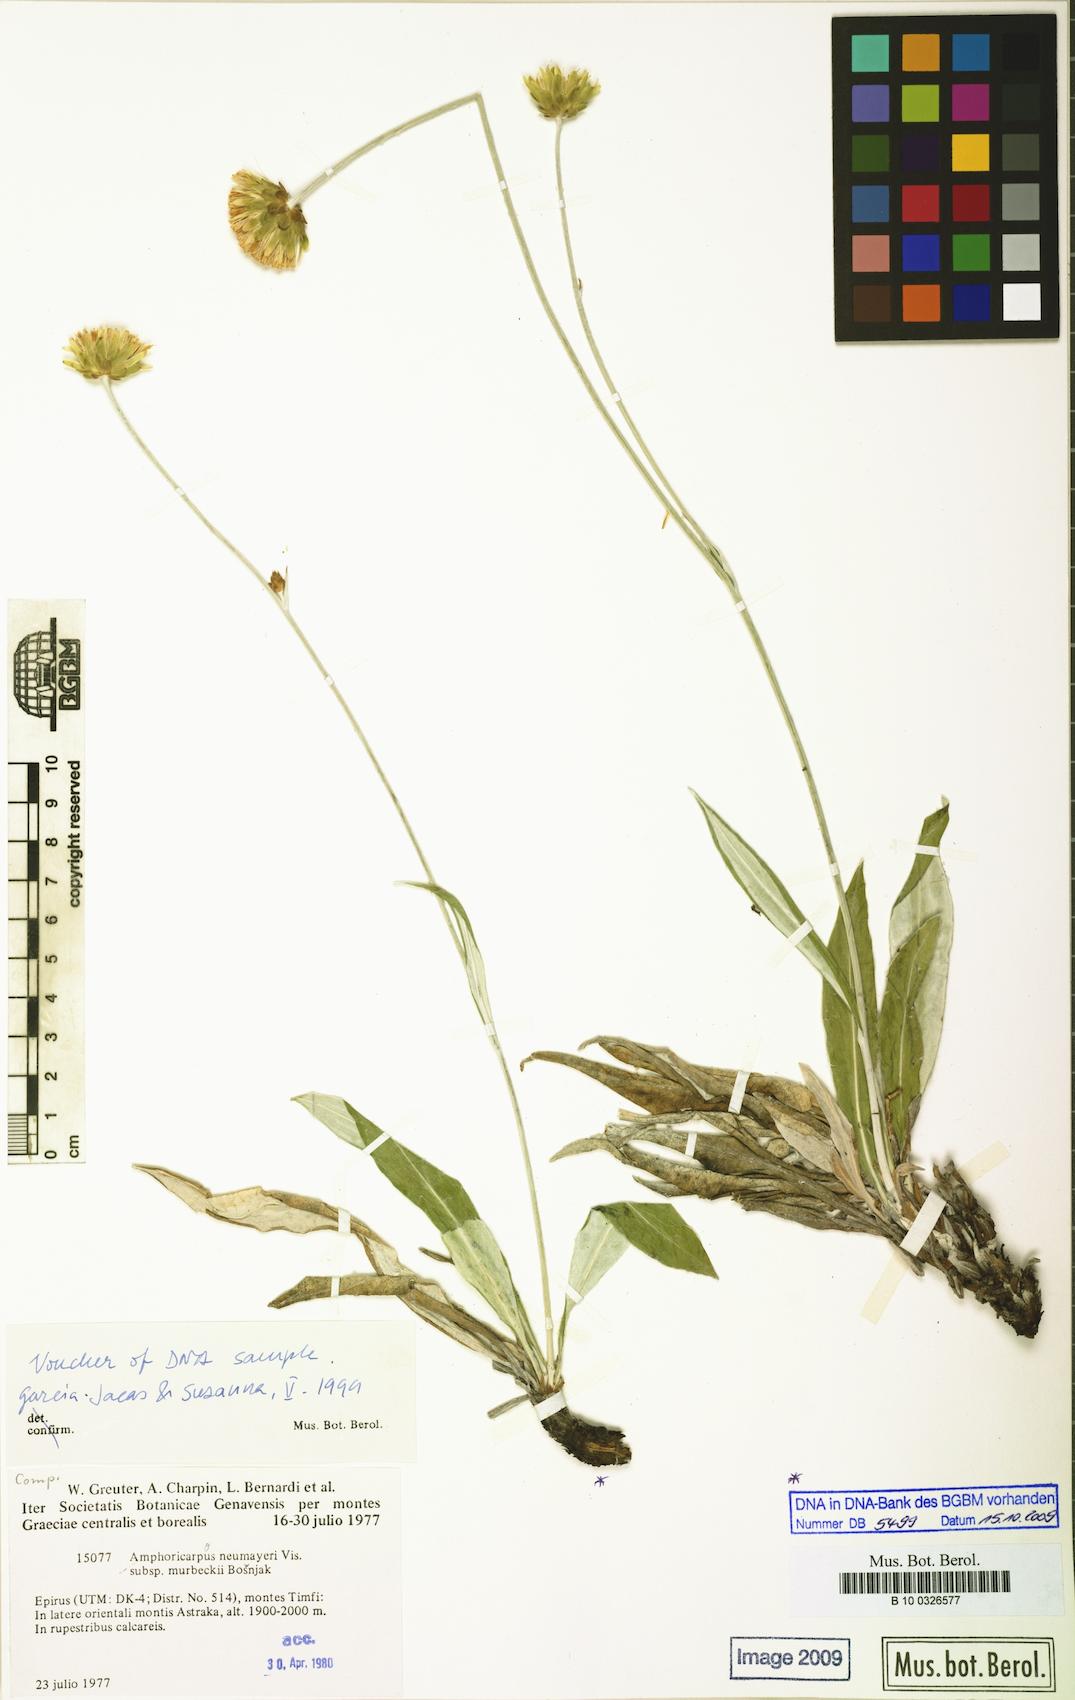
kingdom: Plantae
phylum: Tracheophyta
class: Magnoliopsida
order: Ericales
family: Lecythidaceae
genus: Cariniana
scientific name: Cariniana
